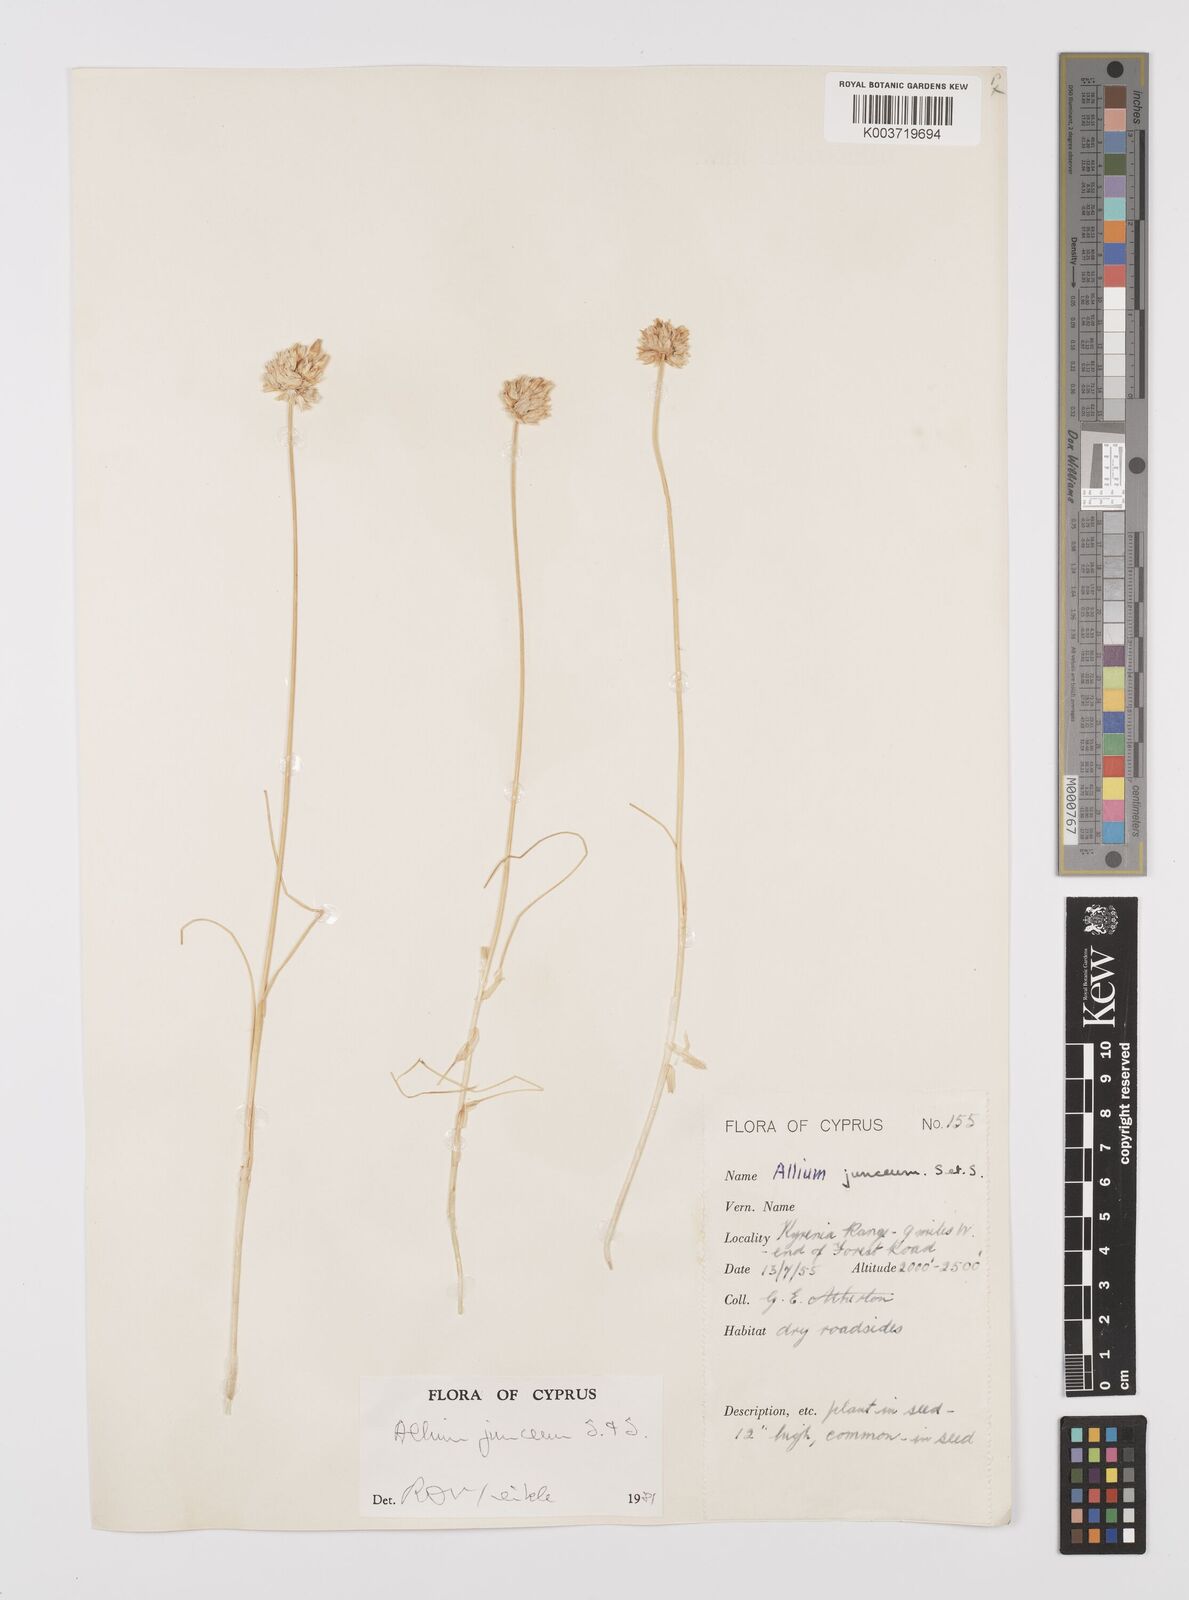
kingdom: Plantae
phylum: Tracheophyta
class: Liliopsida
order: Asparagales
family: Amaryllidaceae
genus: Allium
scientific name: Allium junceum
